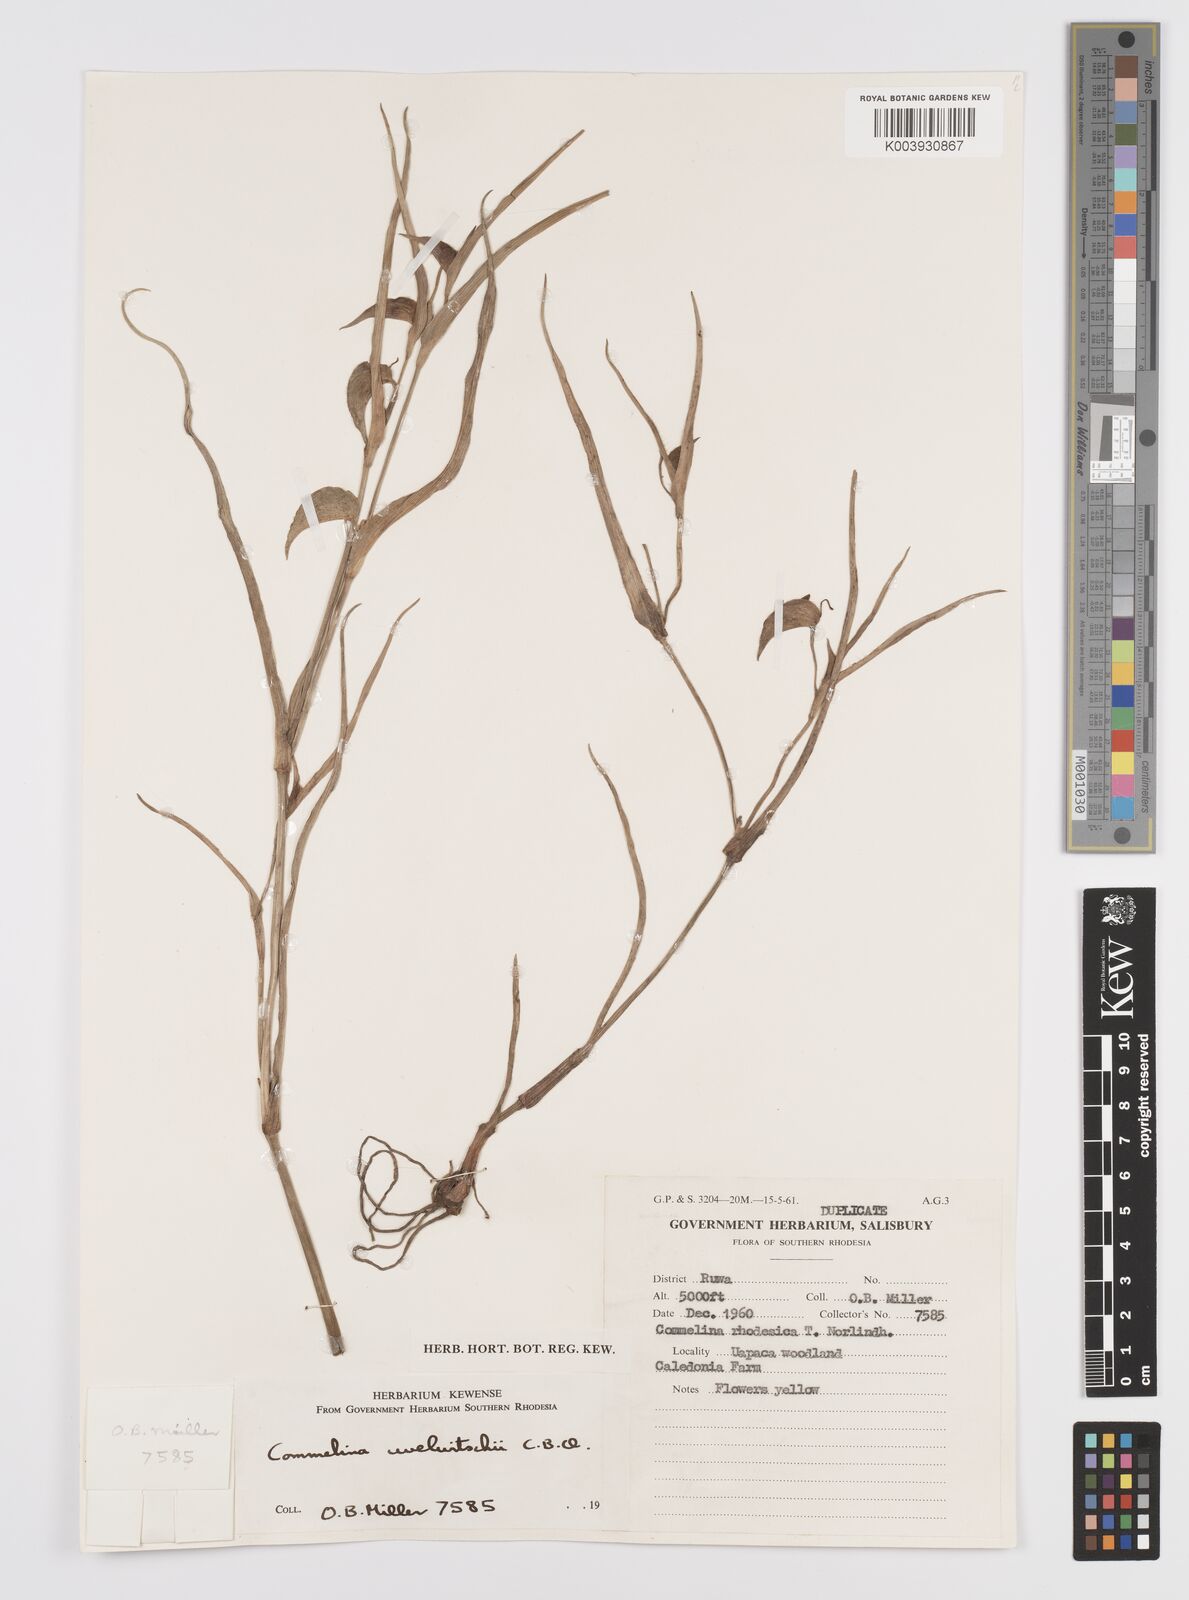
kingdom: Plantae
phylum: Tracheophyta
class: Liliopsida
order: Commelinales
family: Commelinaceae
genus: Commelina
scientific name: Commelina welwitschii
